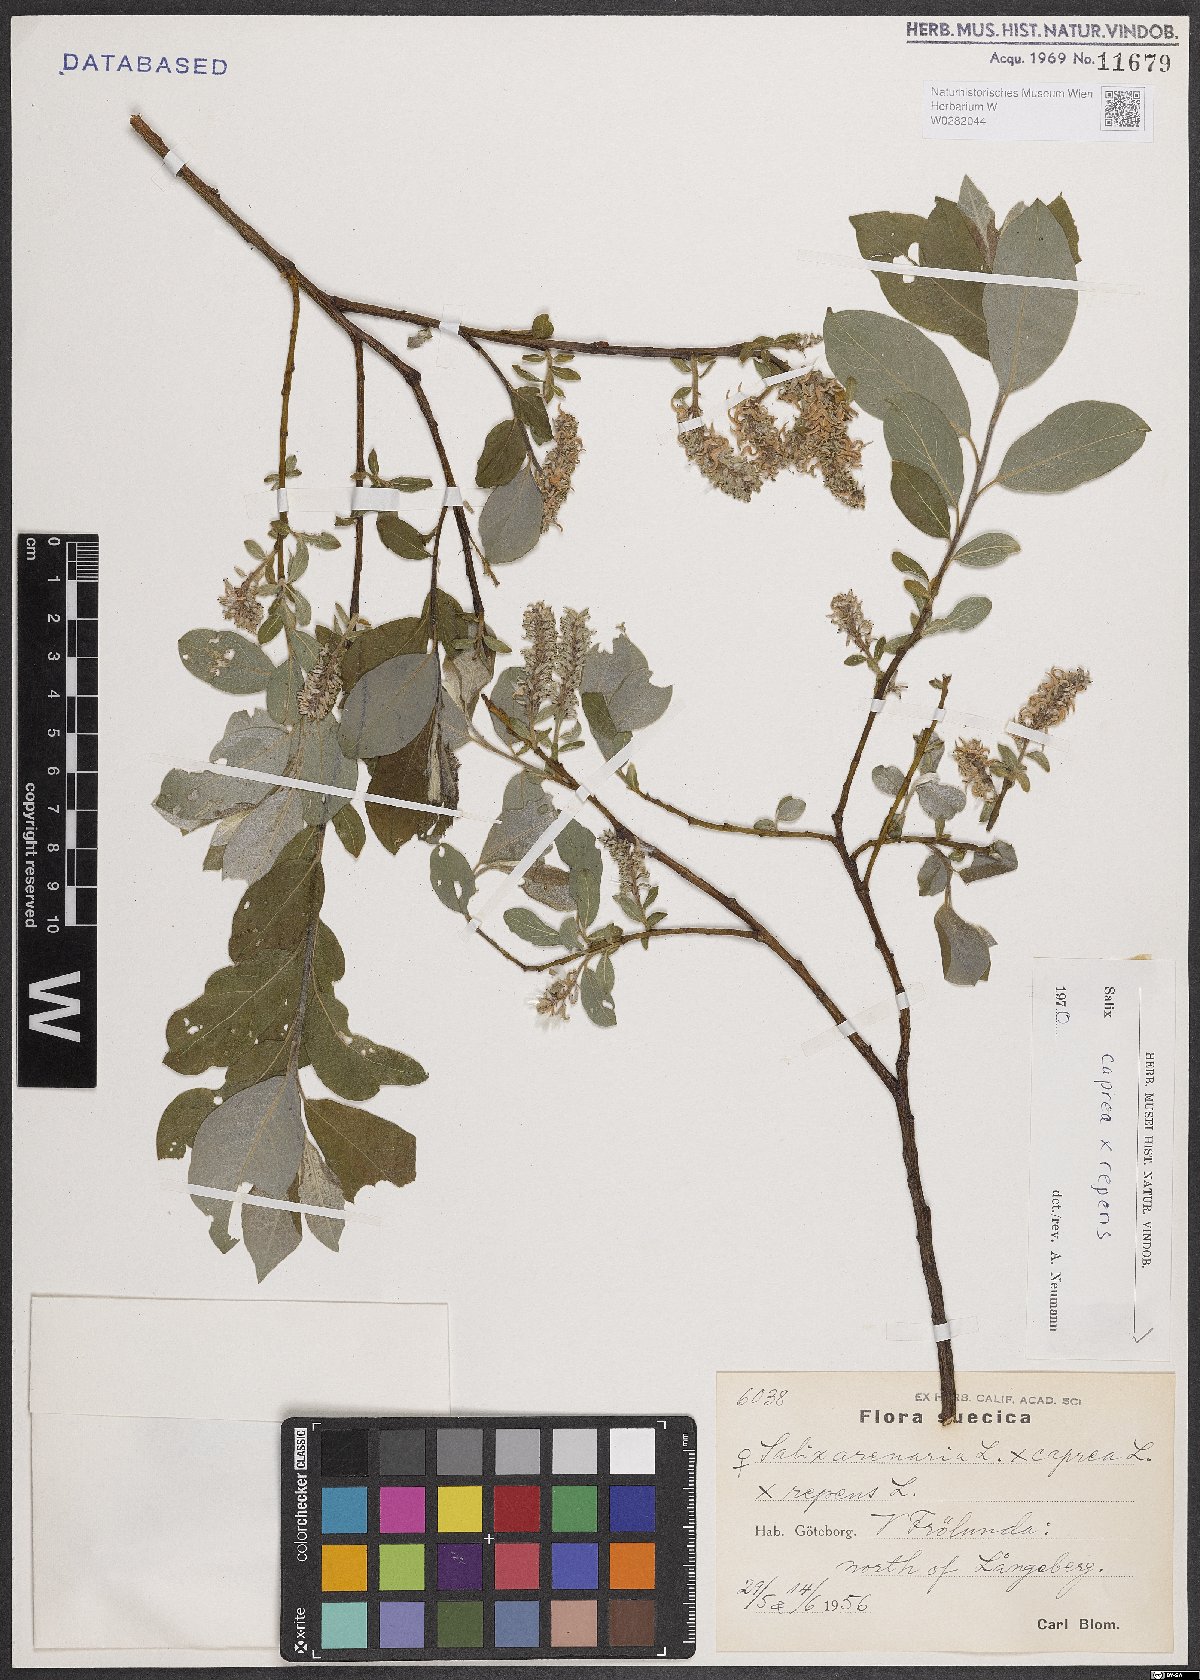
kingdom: Plantae
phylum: Tracheophyta
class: Magnoliopsida
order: Malpighiales
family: Salicaceae
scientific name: Salicaceae
